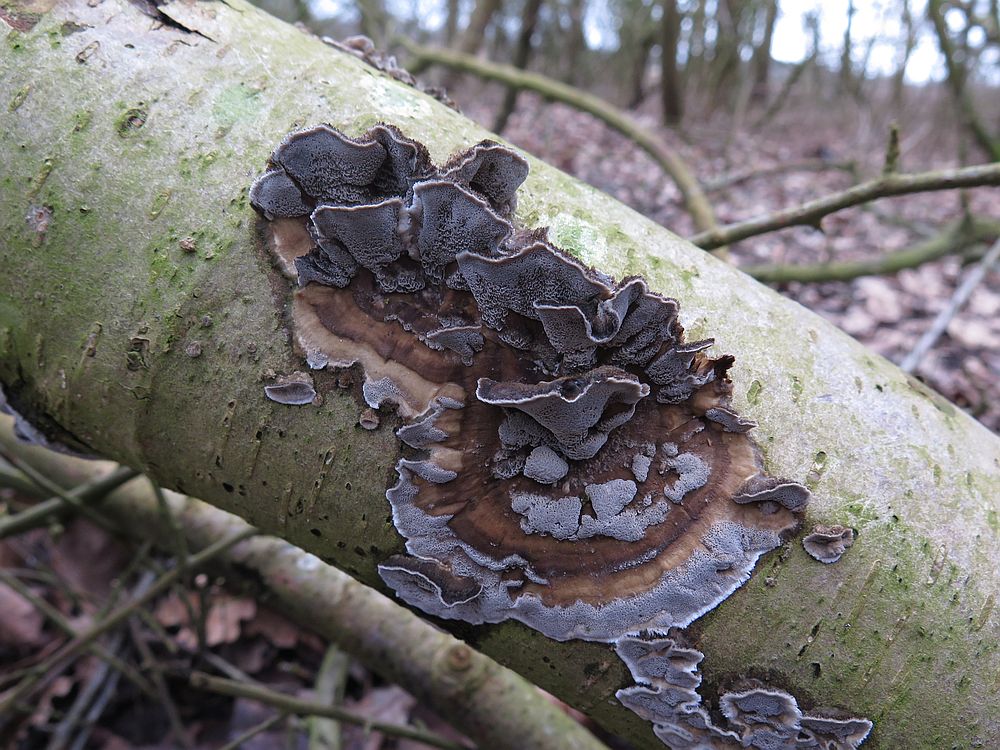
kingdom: Fungi
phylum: Basidiomycota
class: Agaricomycetes
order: Polyporales
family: Phanerochaetaceae
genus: Bjerkandera
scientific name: Bjerkandera adusta
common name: sveden sodporesvamp
